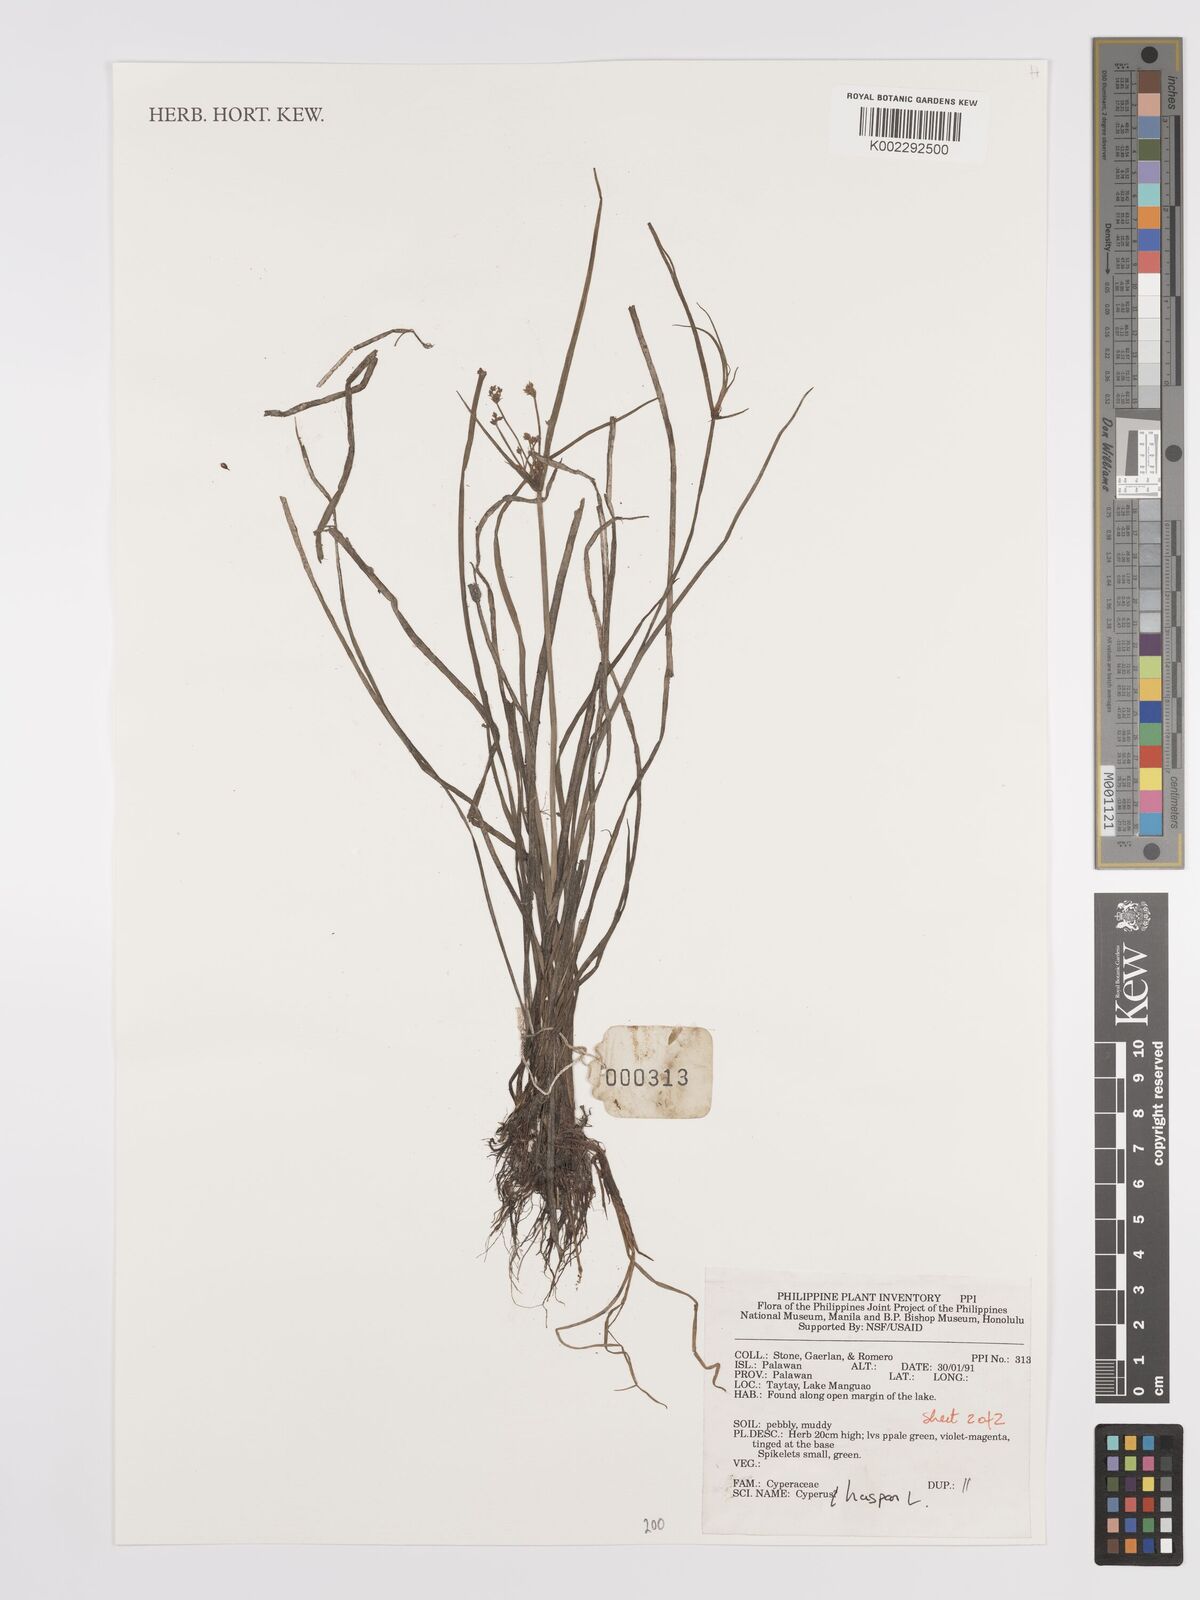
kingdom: Plantae
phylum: Tracheophyta
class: Liliopsida
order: Poales
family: Cyperaceae
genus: Cyperus
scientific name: Cyperus haspan
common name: Haspan flatsedge
